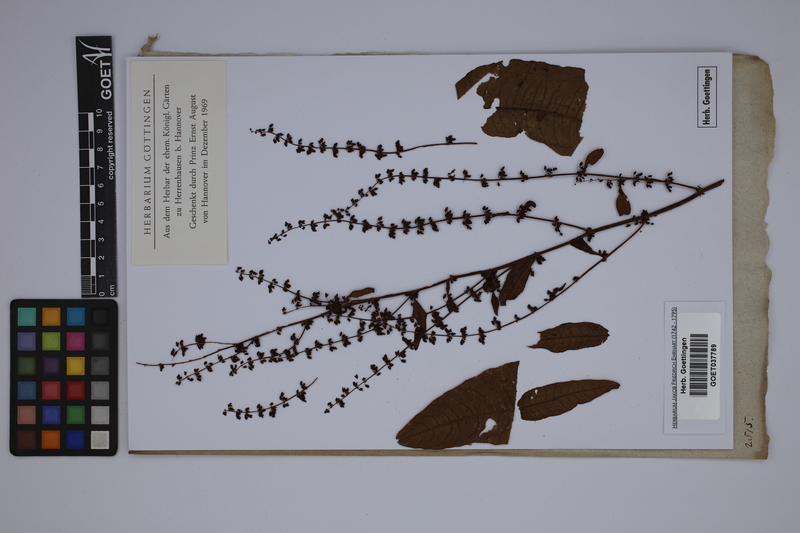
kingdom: Plantae
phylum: Tracheophyta
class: Magnoliopsida
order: Caryophyllales
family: Polygonaceae
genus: Rumex
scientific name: Rumex patientia
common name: Patience dock
